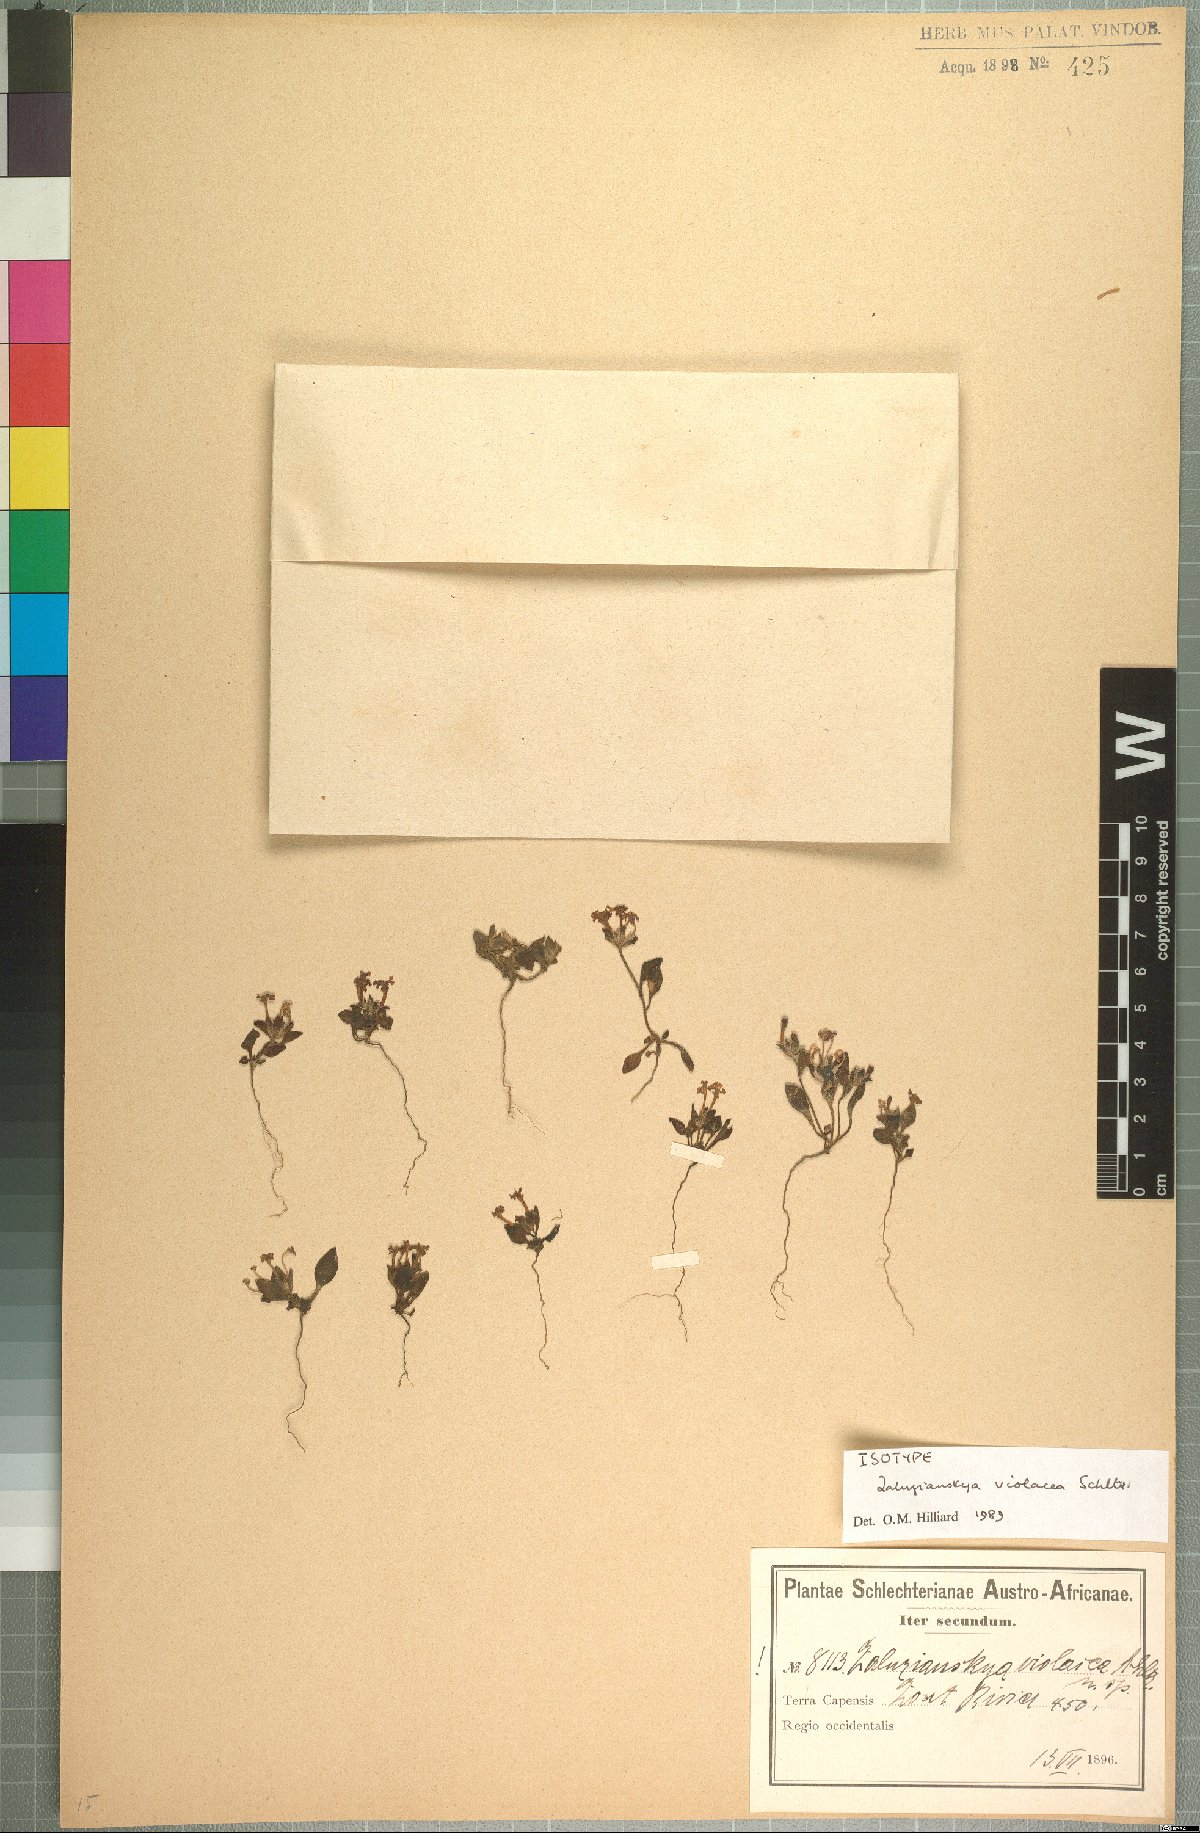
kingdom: Plantae
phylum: Tracheophyta
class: Magnoliopsida
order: Lamiales
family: Scrophulariaceae
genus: Zaluzianskya
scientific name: Zaluzianskya violacea
